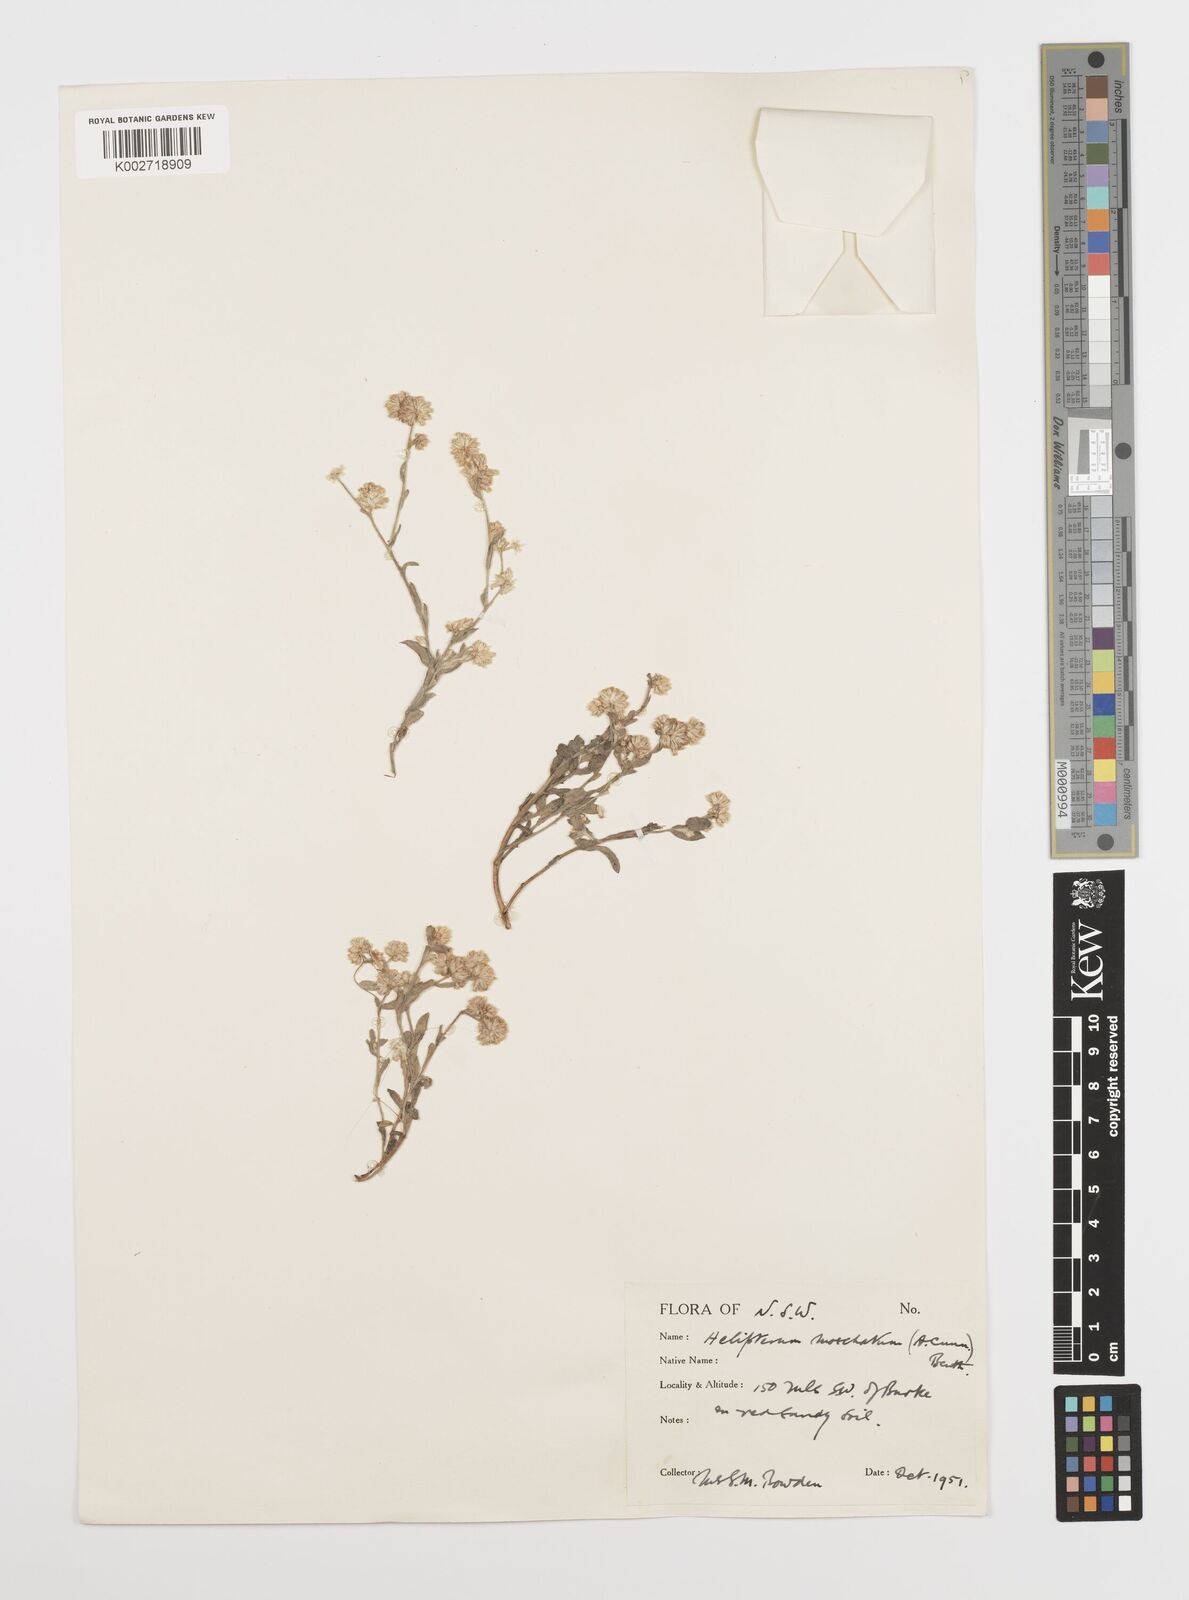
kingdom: Plantae
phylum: Tracheophyta
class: Magnoliopsida
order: Asterales
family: Asteraceae
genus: Rhodanthe
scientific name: Rhodanthe moschata
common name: Musk sunray
